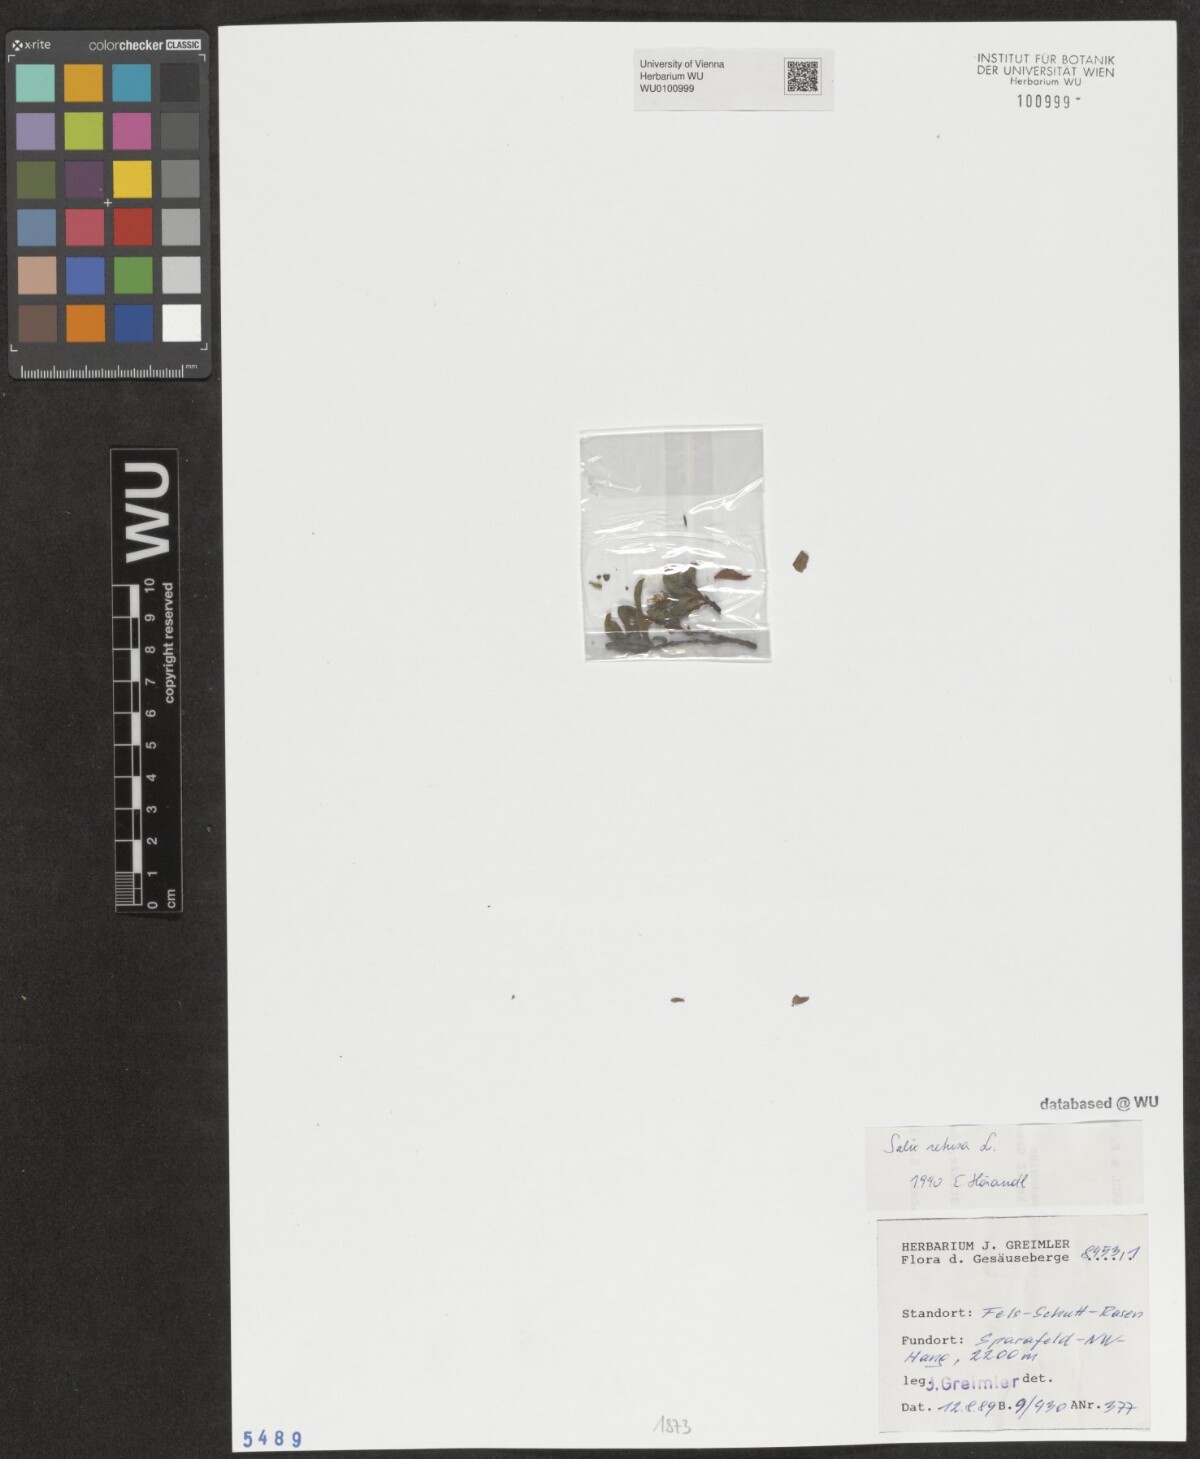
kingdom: Plantae
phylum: Tracheophyta
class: Magnoliopsida
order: Malpighiales
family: Salicaceae
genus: Salix
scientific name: Salix retusa
